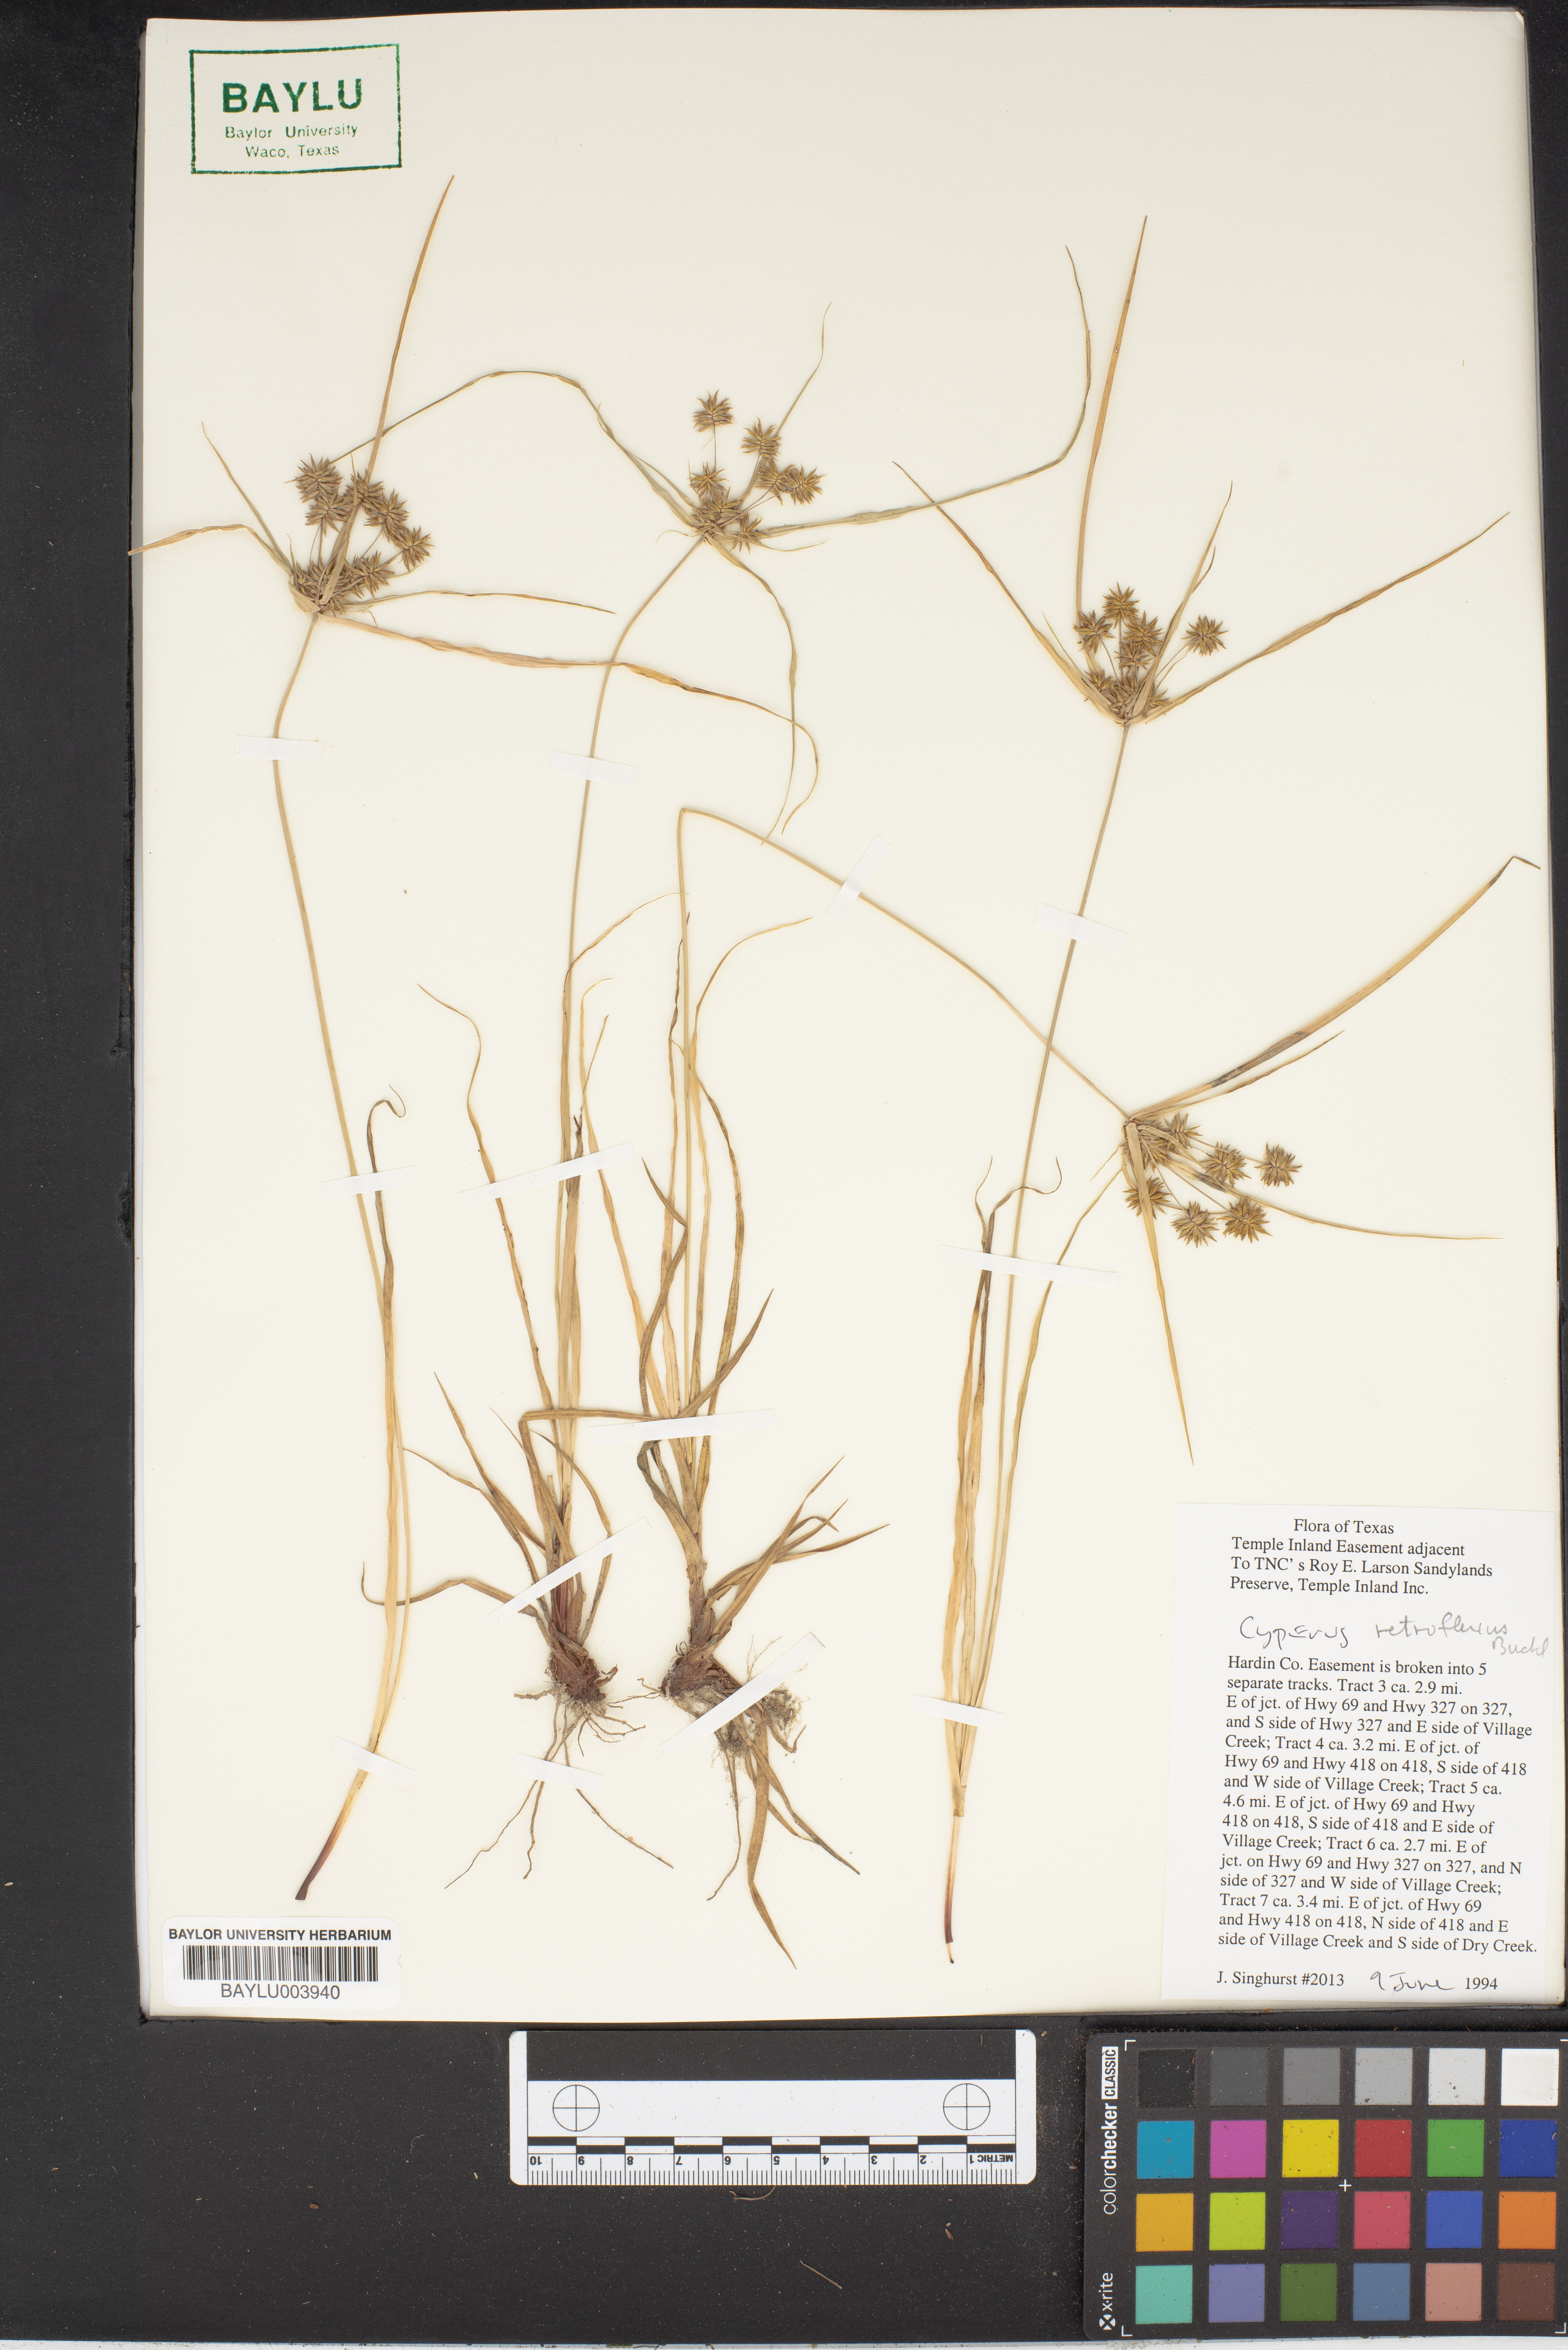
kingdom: Plantae
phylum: Tracheophyta
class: Liliopsida
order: Poales
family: Cyperaceae
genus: Cyperus
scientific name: Cyperus retroflexus
